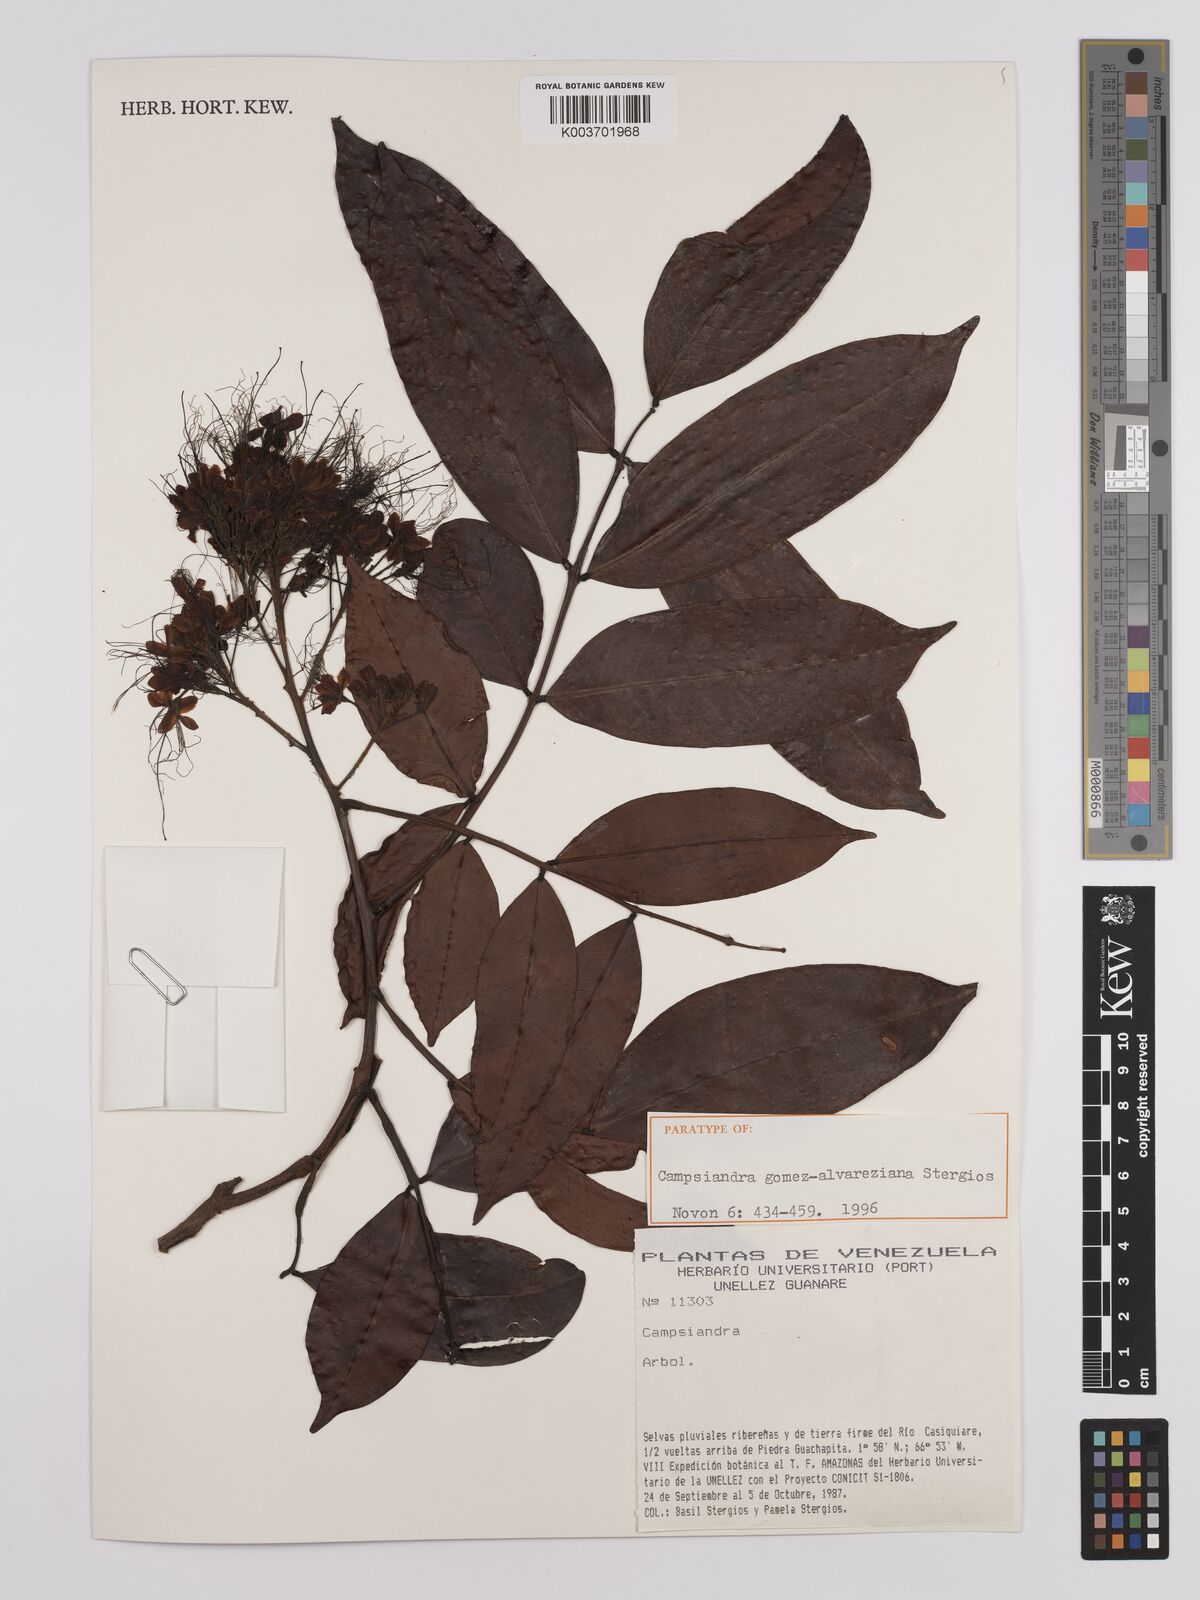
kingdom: Plantae
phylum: Tracheophyta
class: Magnoliopsida
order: Fabales
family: Fabaceae
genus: Campsiandra
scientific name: Campsiandra gomez-alvareziana
